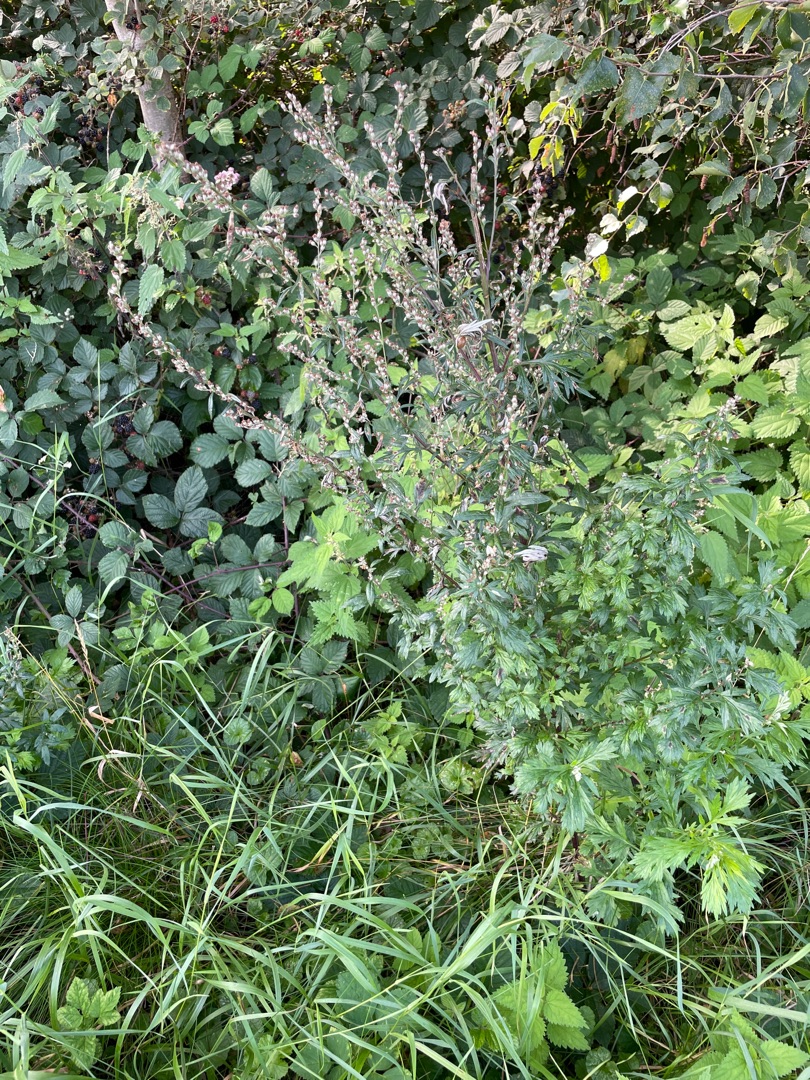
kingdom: Plantae
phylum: Tracheophyta
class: Magnoliopsida
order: Asterales
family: Asteraceae
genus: Artemisia
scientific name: Artemisia vulgaris
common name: Grå-bynke
